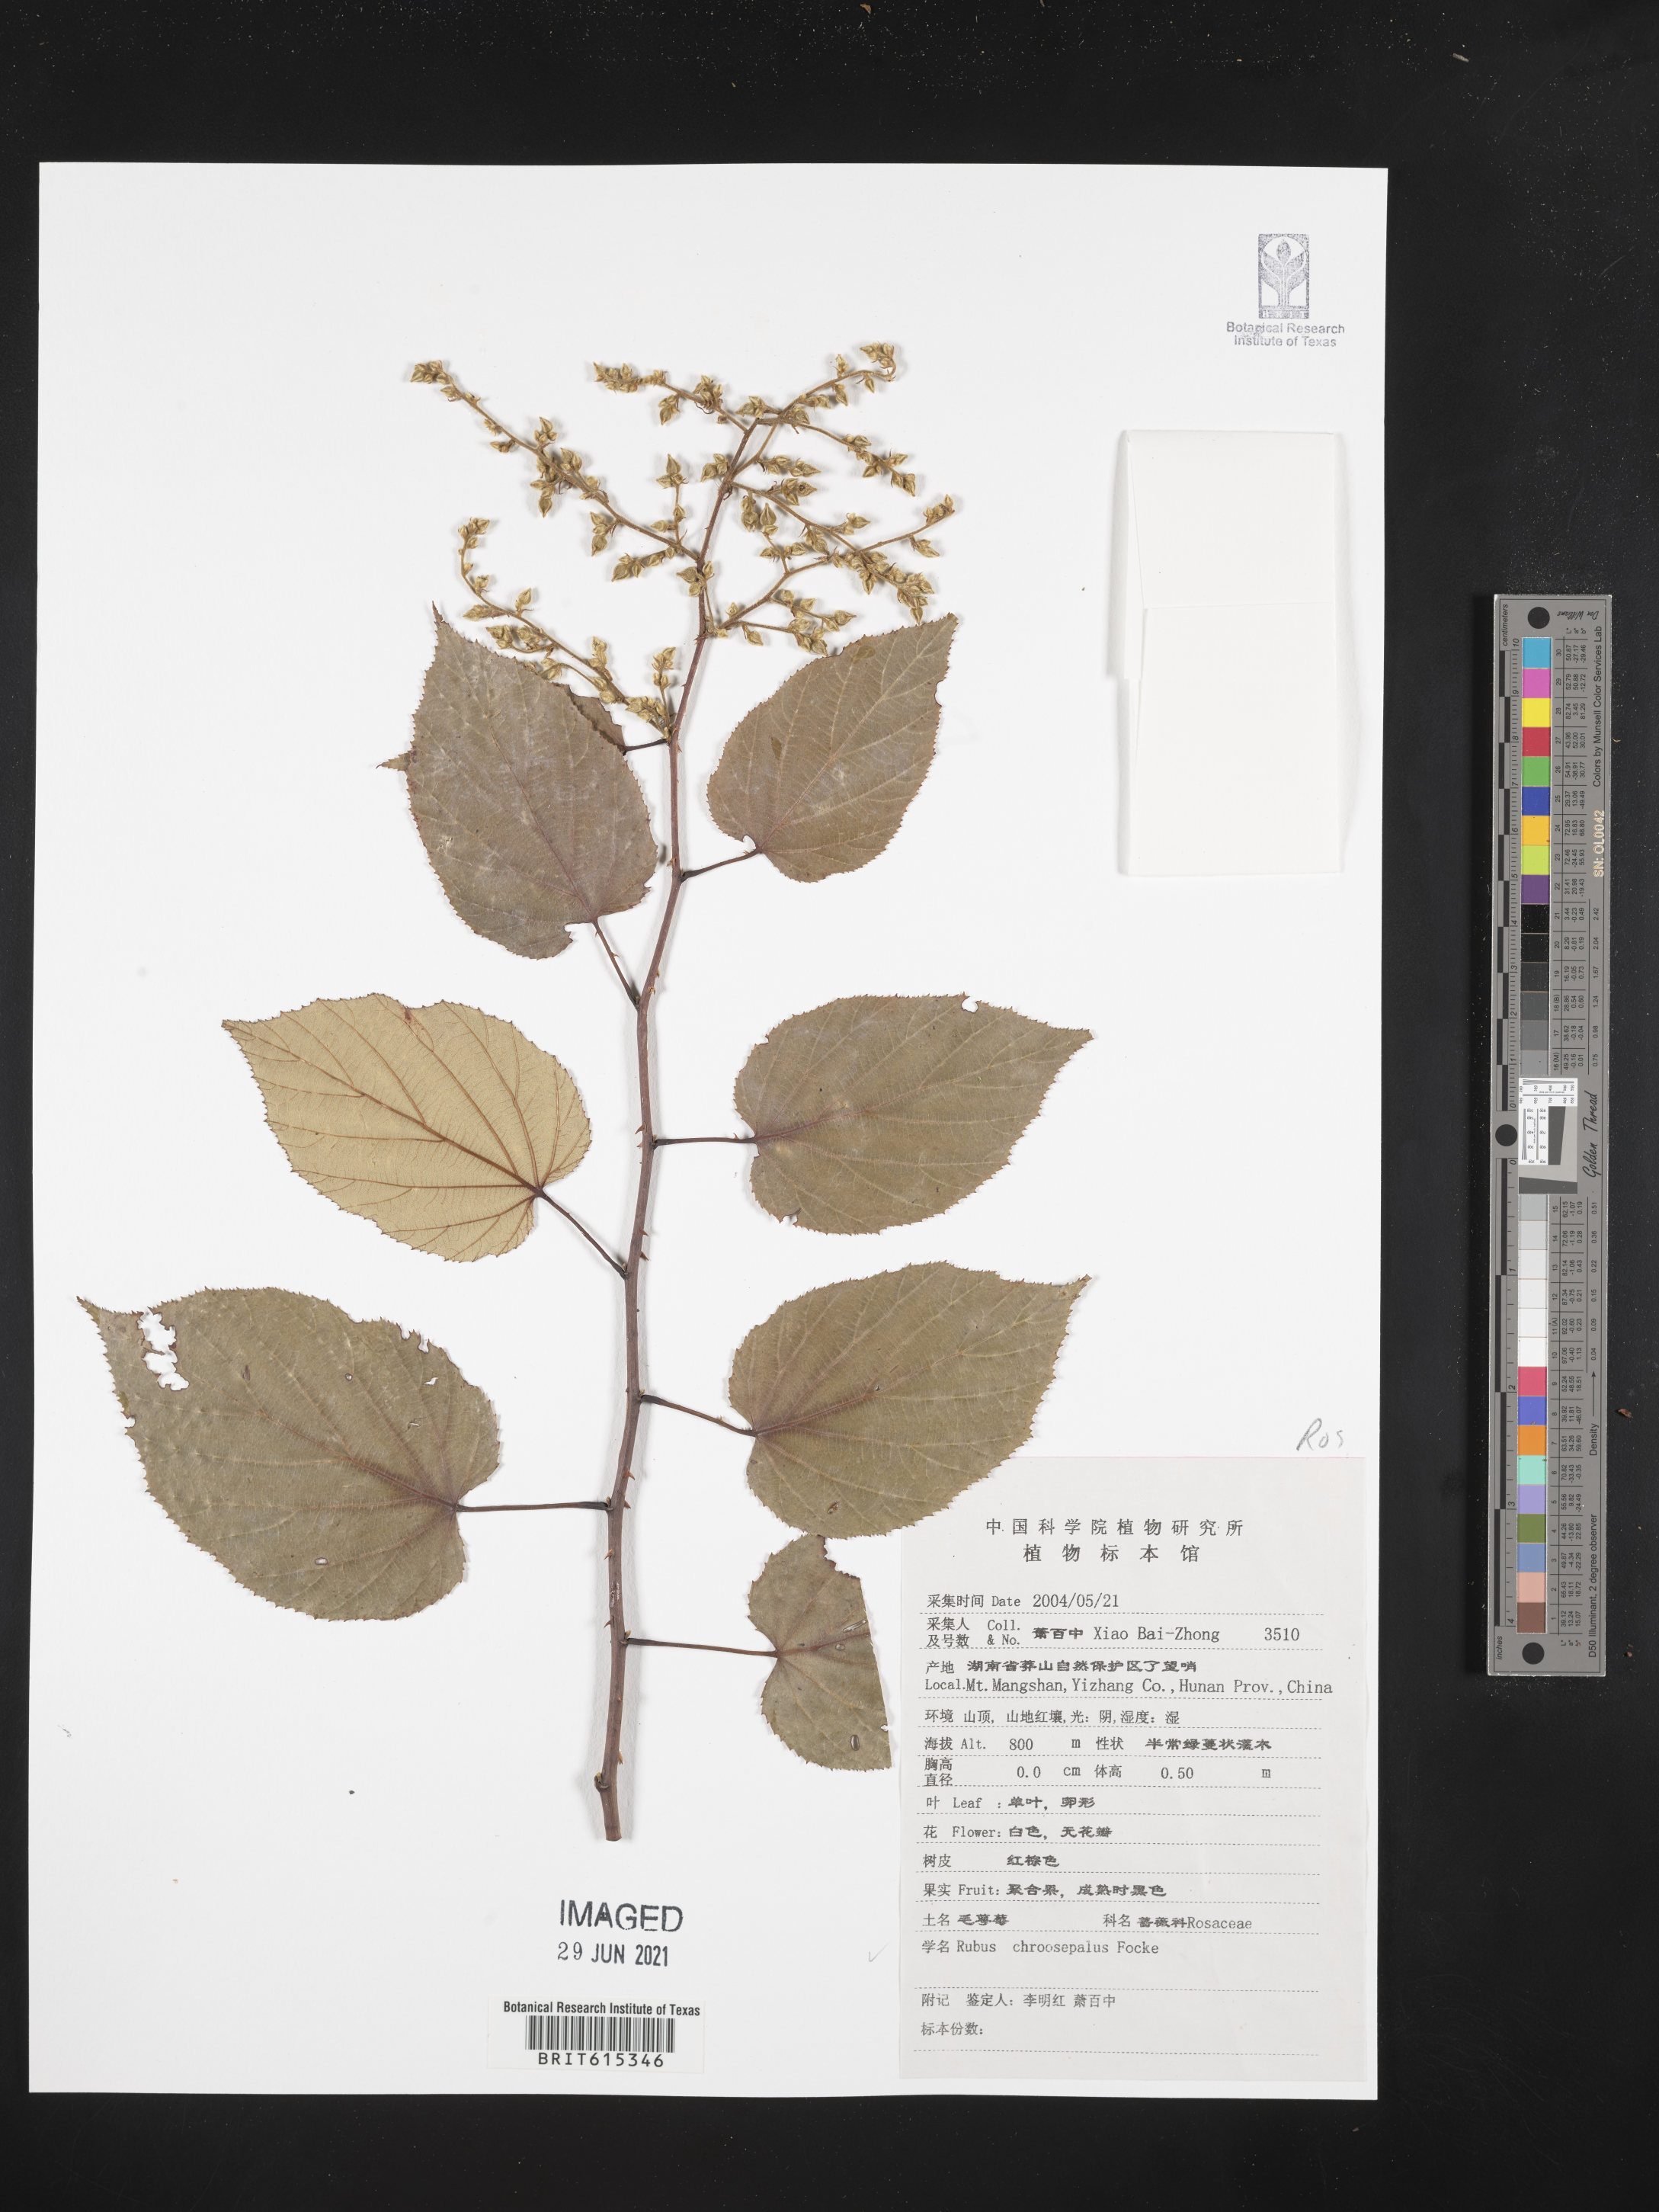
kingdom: Plantae
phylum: Tracheophyta
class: Magnoliopsida
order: Rosales
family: Rosaceae
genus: Rubus
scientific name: Rubus chroosepalus
